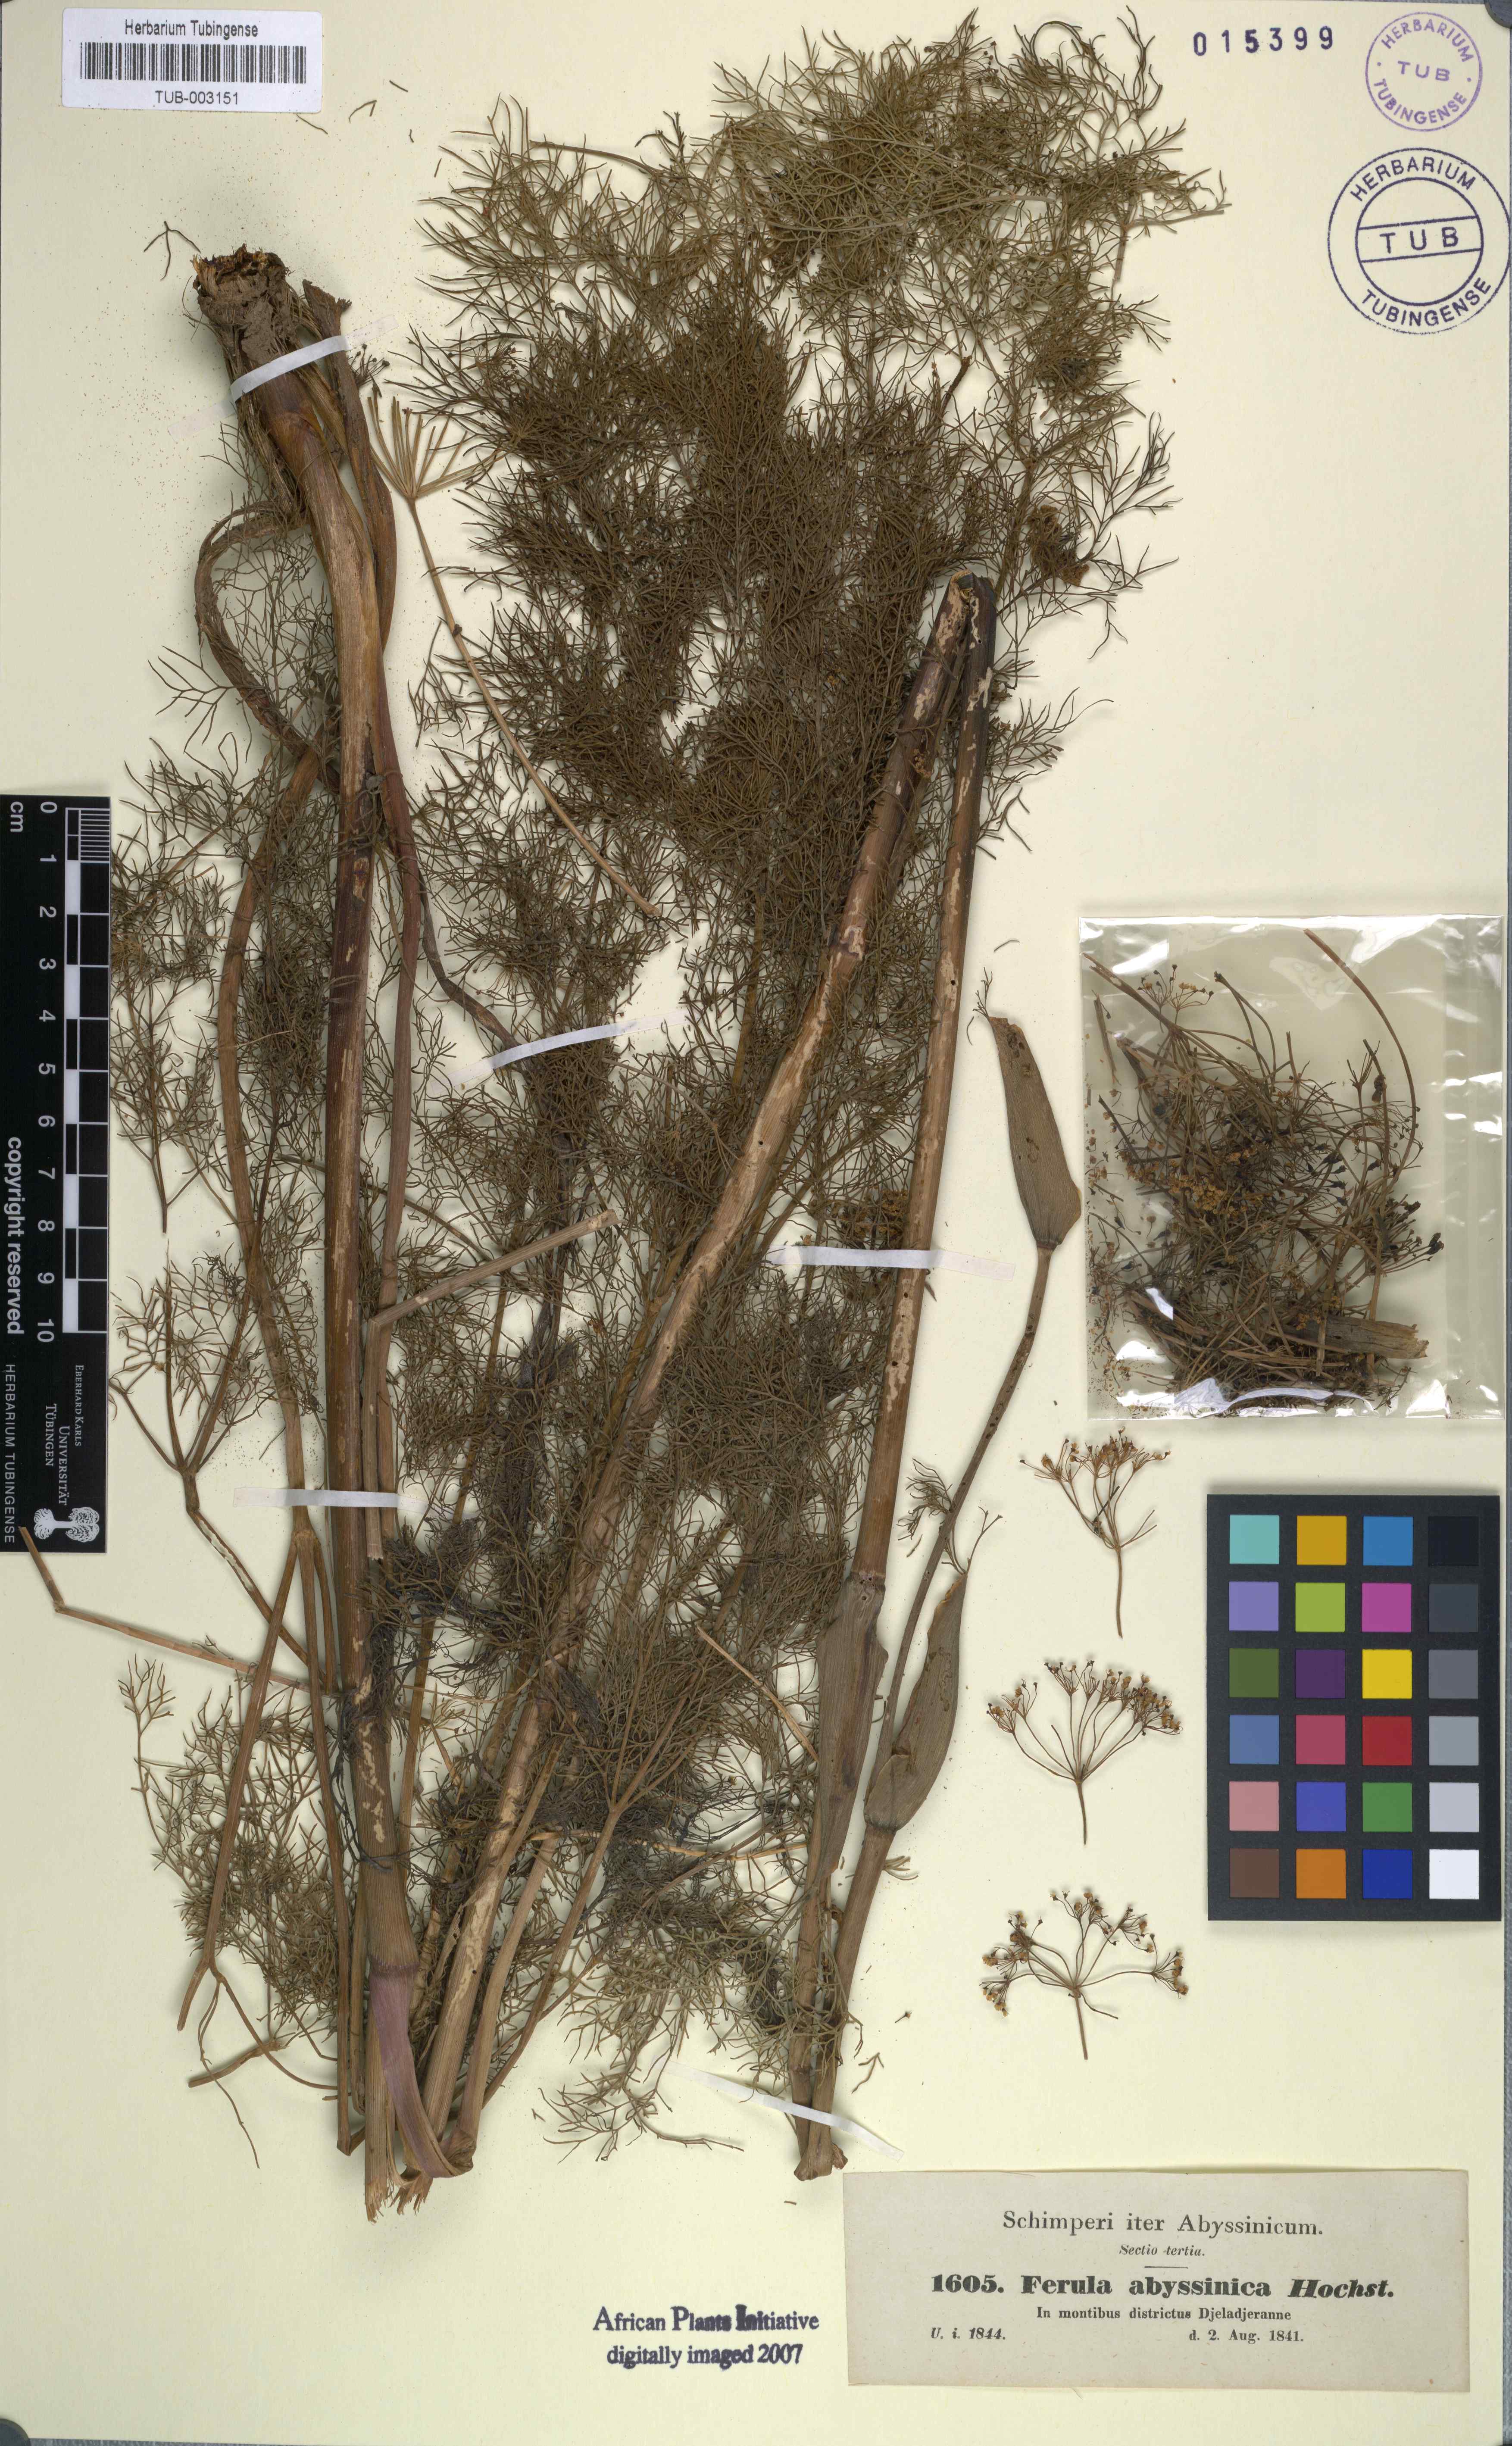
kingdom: Plantae
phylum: Tracheophyta
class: Magnoliopsida
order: Apiales
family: Apiaceae
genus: Ferula
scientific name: Ferula communis
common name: Giant fennel
